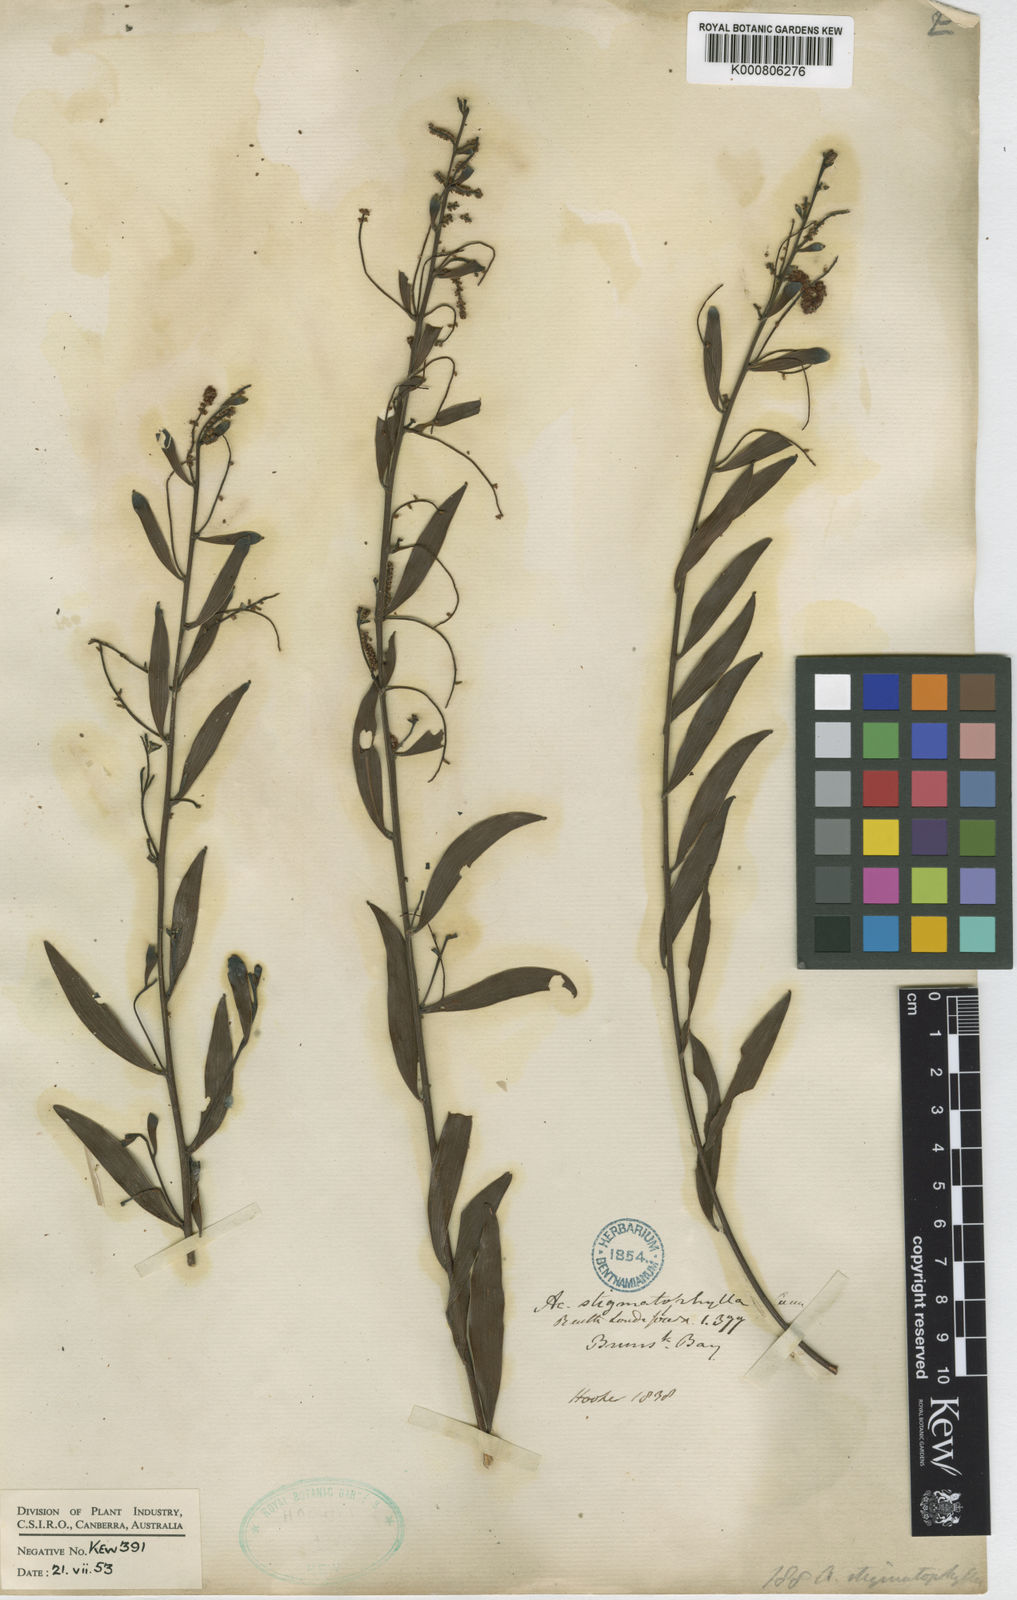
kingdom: Plantae
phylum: Tracheophyta
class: Magnoliopsida
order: Fabales
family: Fabaceae
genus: Acacia
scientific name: Acacia
